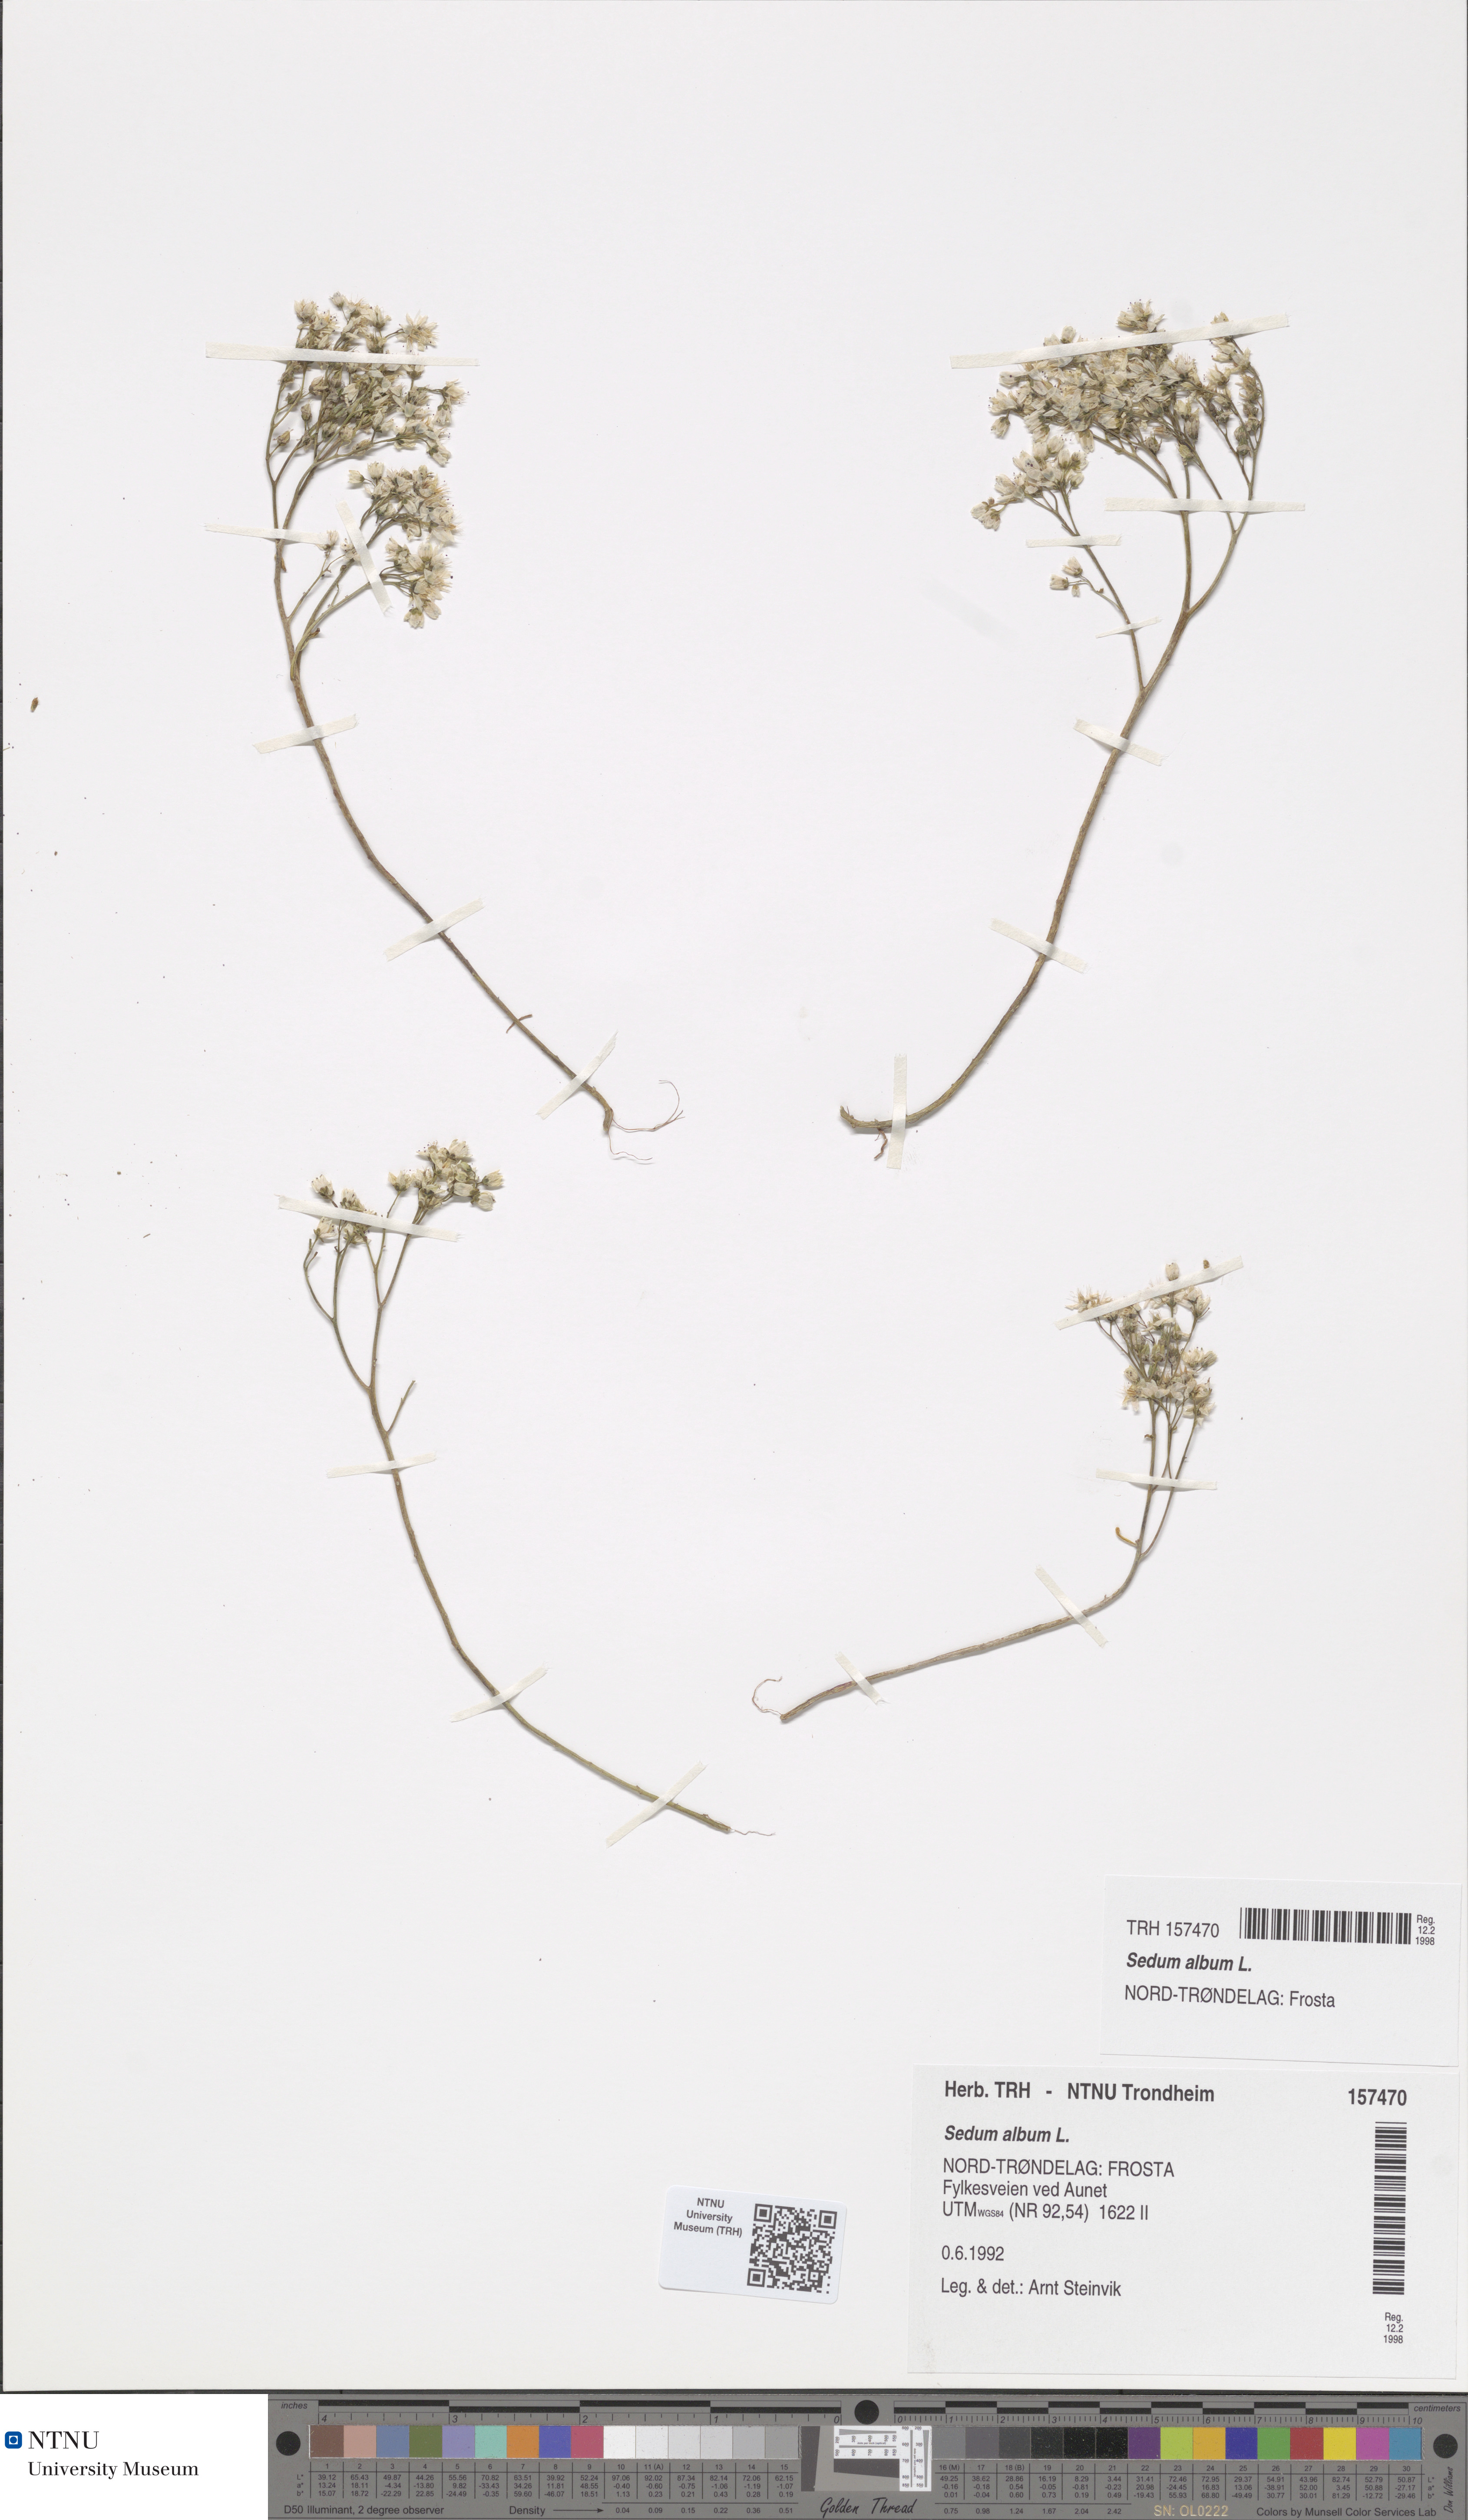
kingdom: Plantae
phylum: Tracheophyta
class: Magnoliopsida
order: Saxifragales
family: Crassulaceae
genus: Sedum
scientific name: Sedum album
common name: White stonecrop
